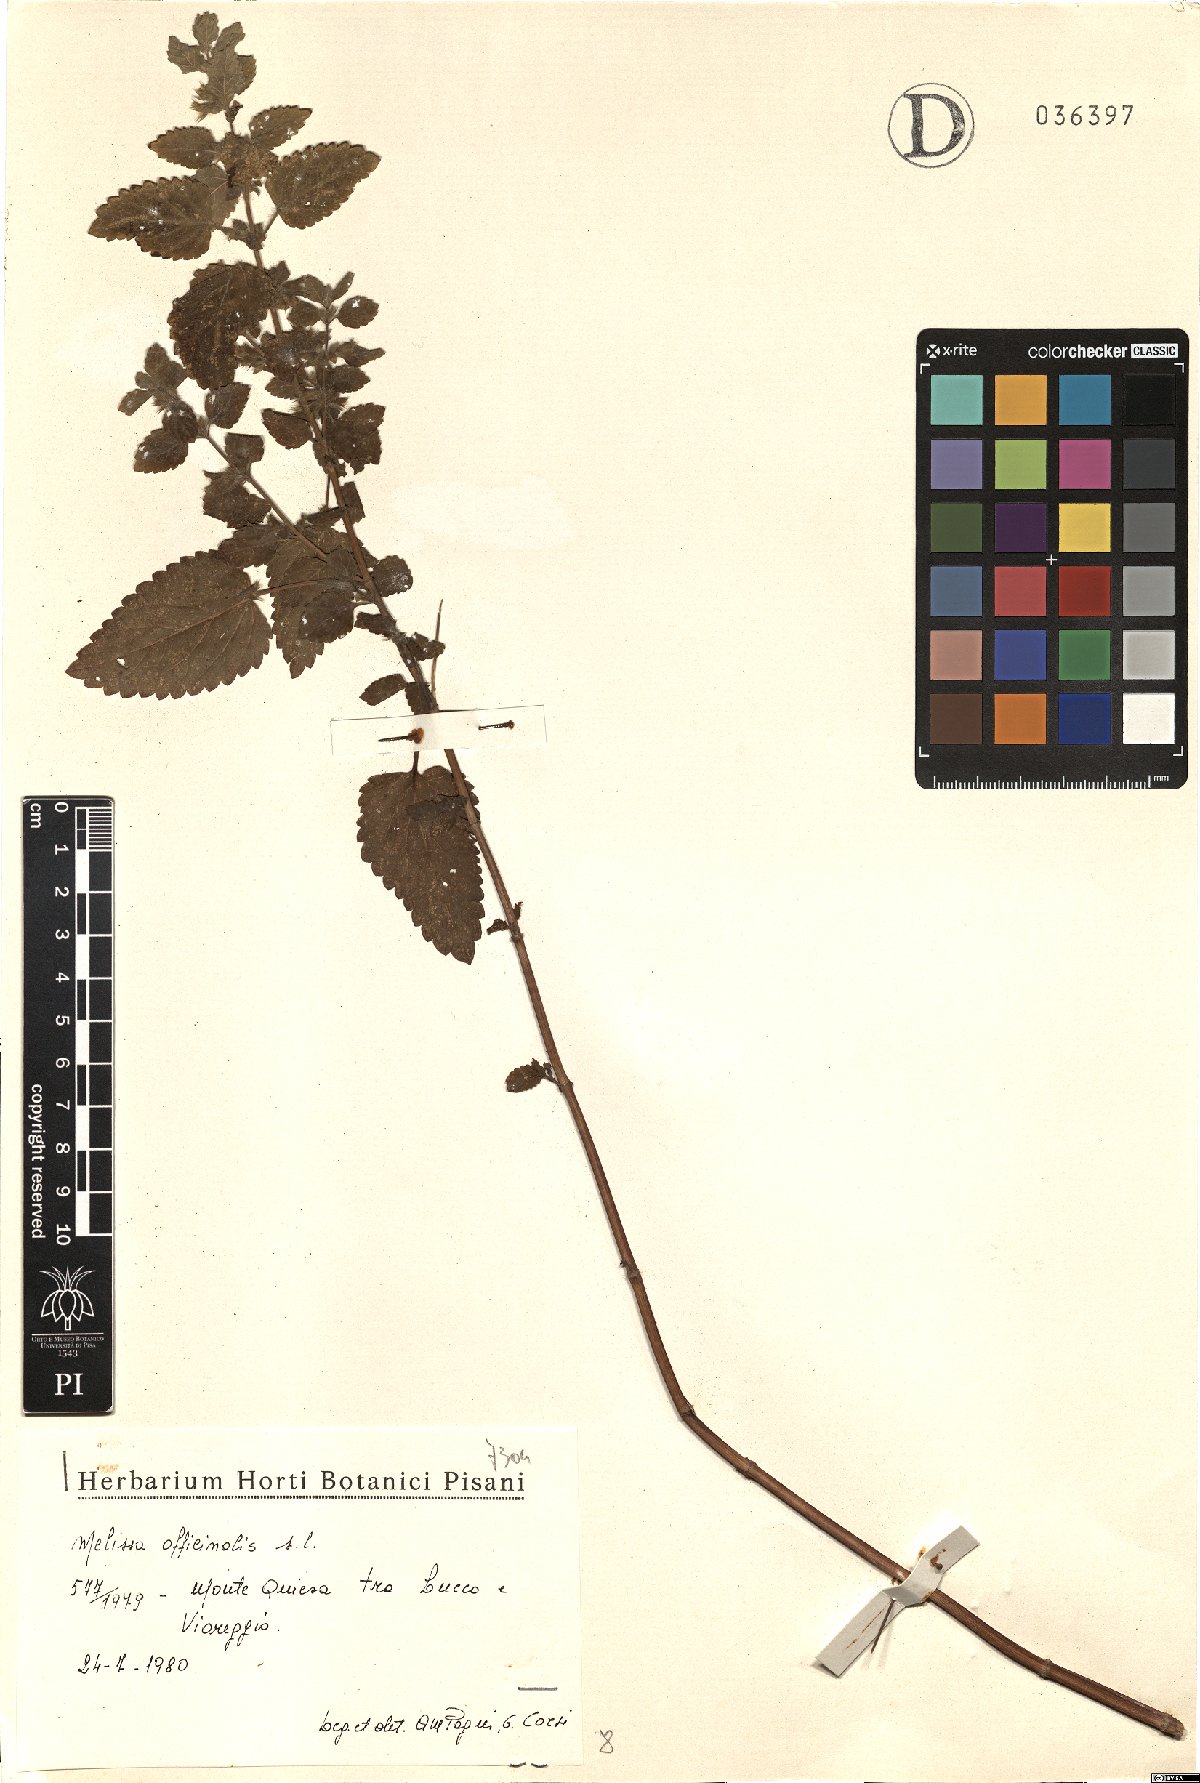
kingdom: Plantae
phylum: Tracheophyta
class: Magnoliopsida
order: Lamiales
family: Lamiaceae
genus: Melissa
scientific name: Melissa officinalis
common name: Balm
